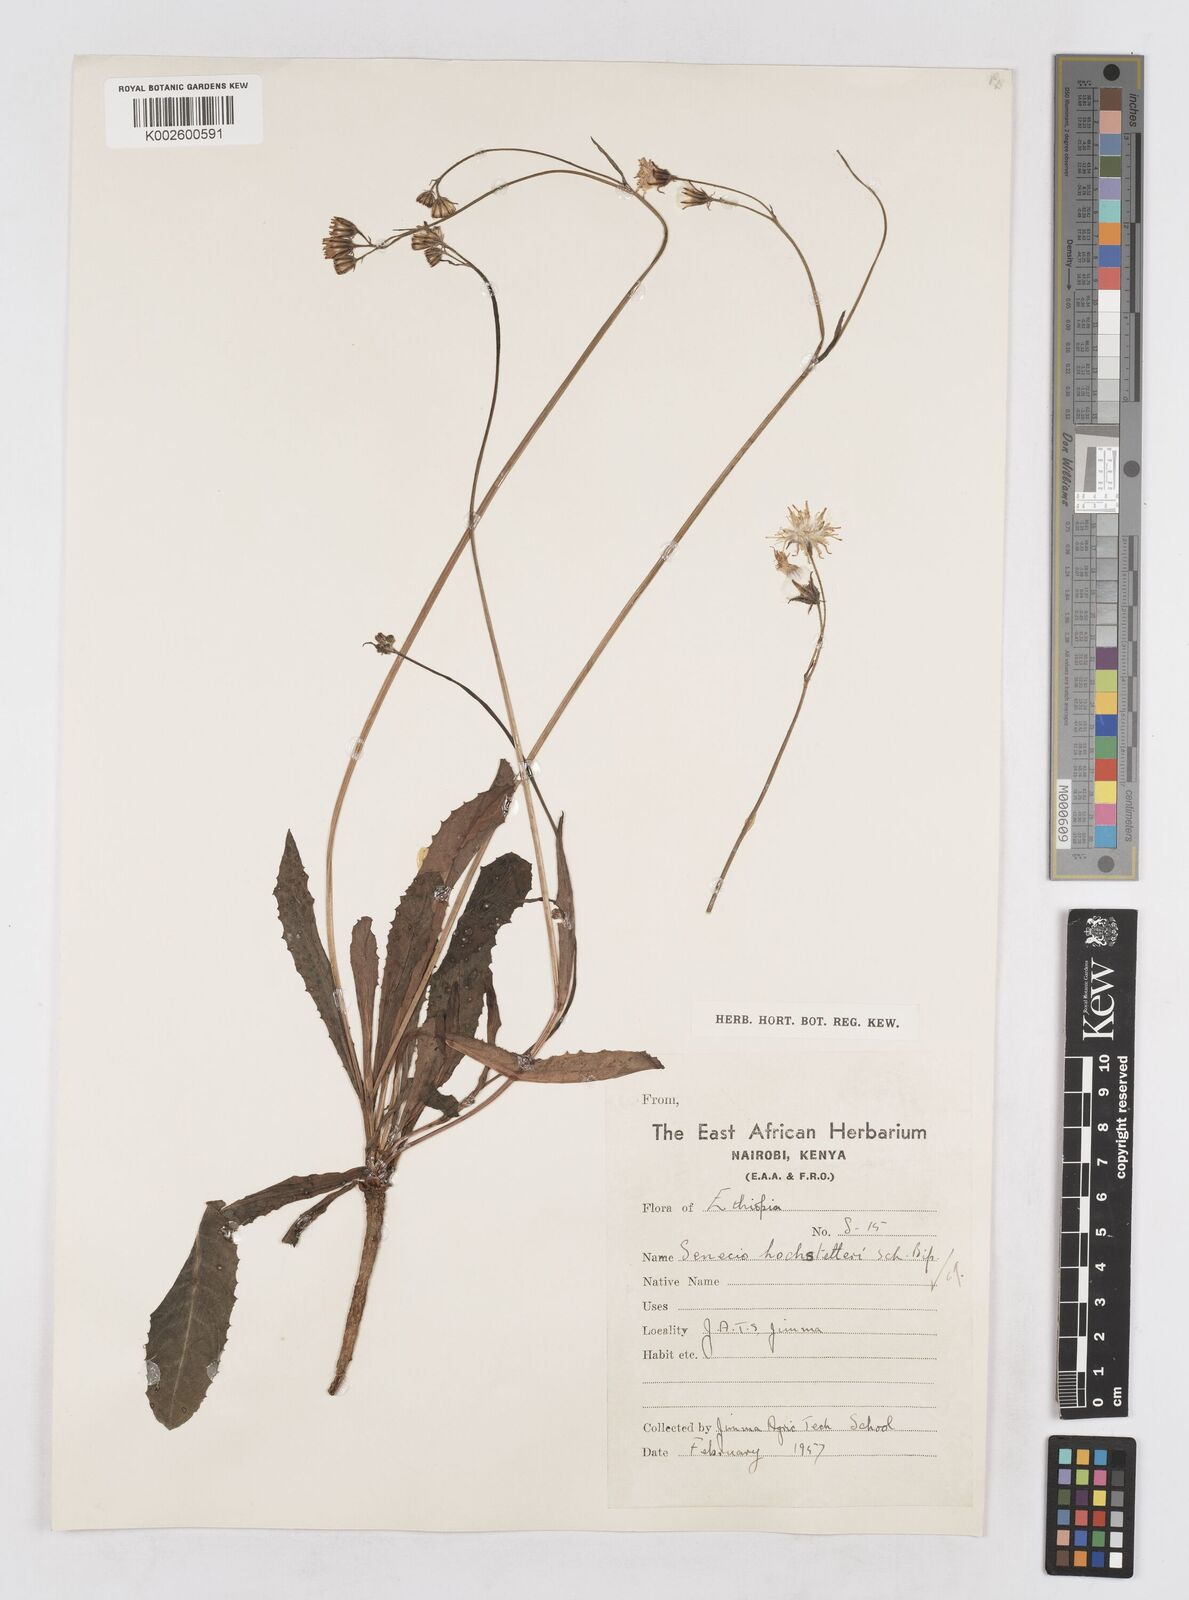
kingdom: Plantae
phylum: Tracheophyta
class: Magnoliopsida
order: Asterales
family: Asteraceae
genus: Senecio
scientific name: Senecio hochstetteri
